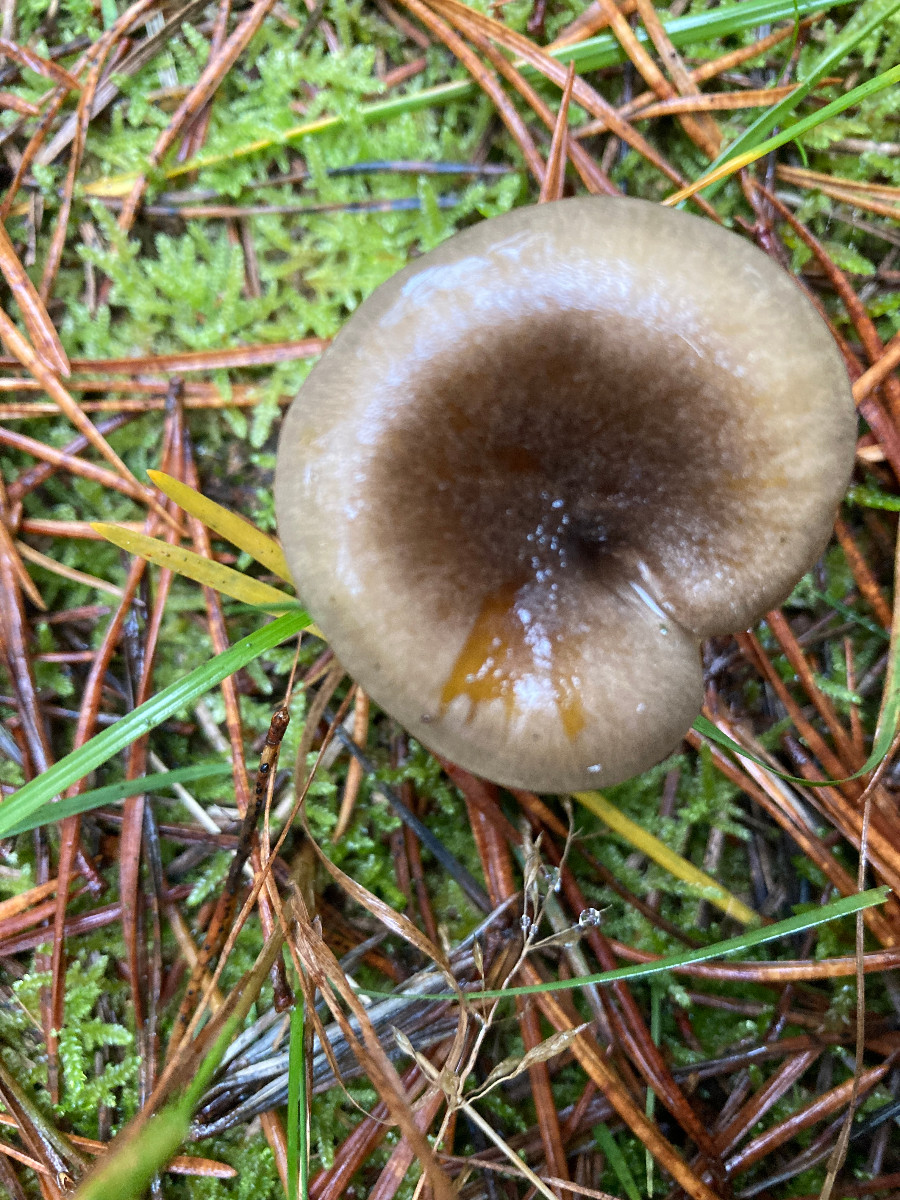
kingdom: Fungi
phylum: Basidiomycota
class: Agaricomycetes
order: Agaricales
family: Hygrophoraceae
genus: Hygrophorus
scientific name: Hygrophorus hypothejus
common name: frost-sneglehat
